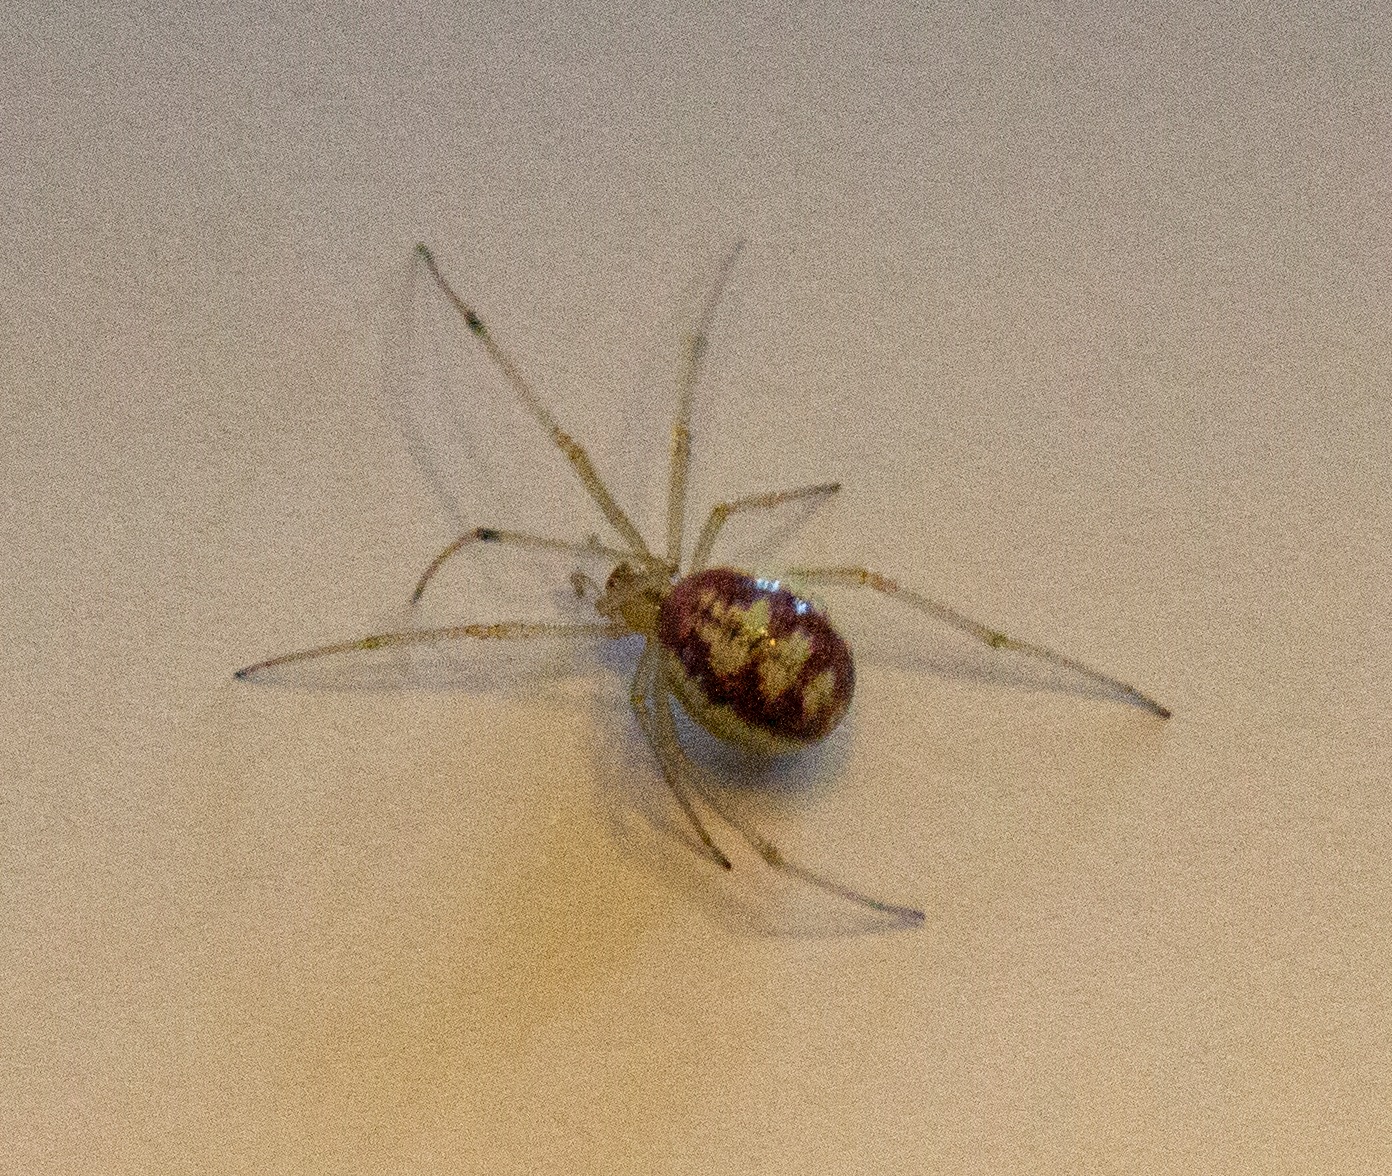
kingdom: Animalia
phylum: Arthropoda
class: Arachnida
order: Araneae
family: Theridiidae
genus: Enoplognatha
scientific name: Enoplognatha
